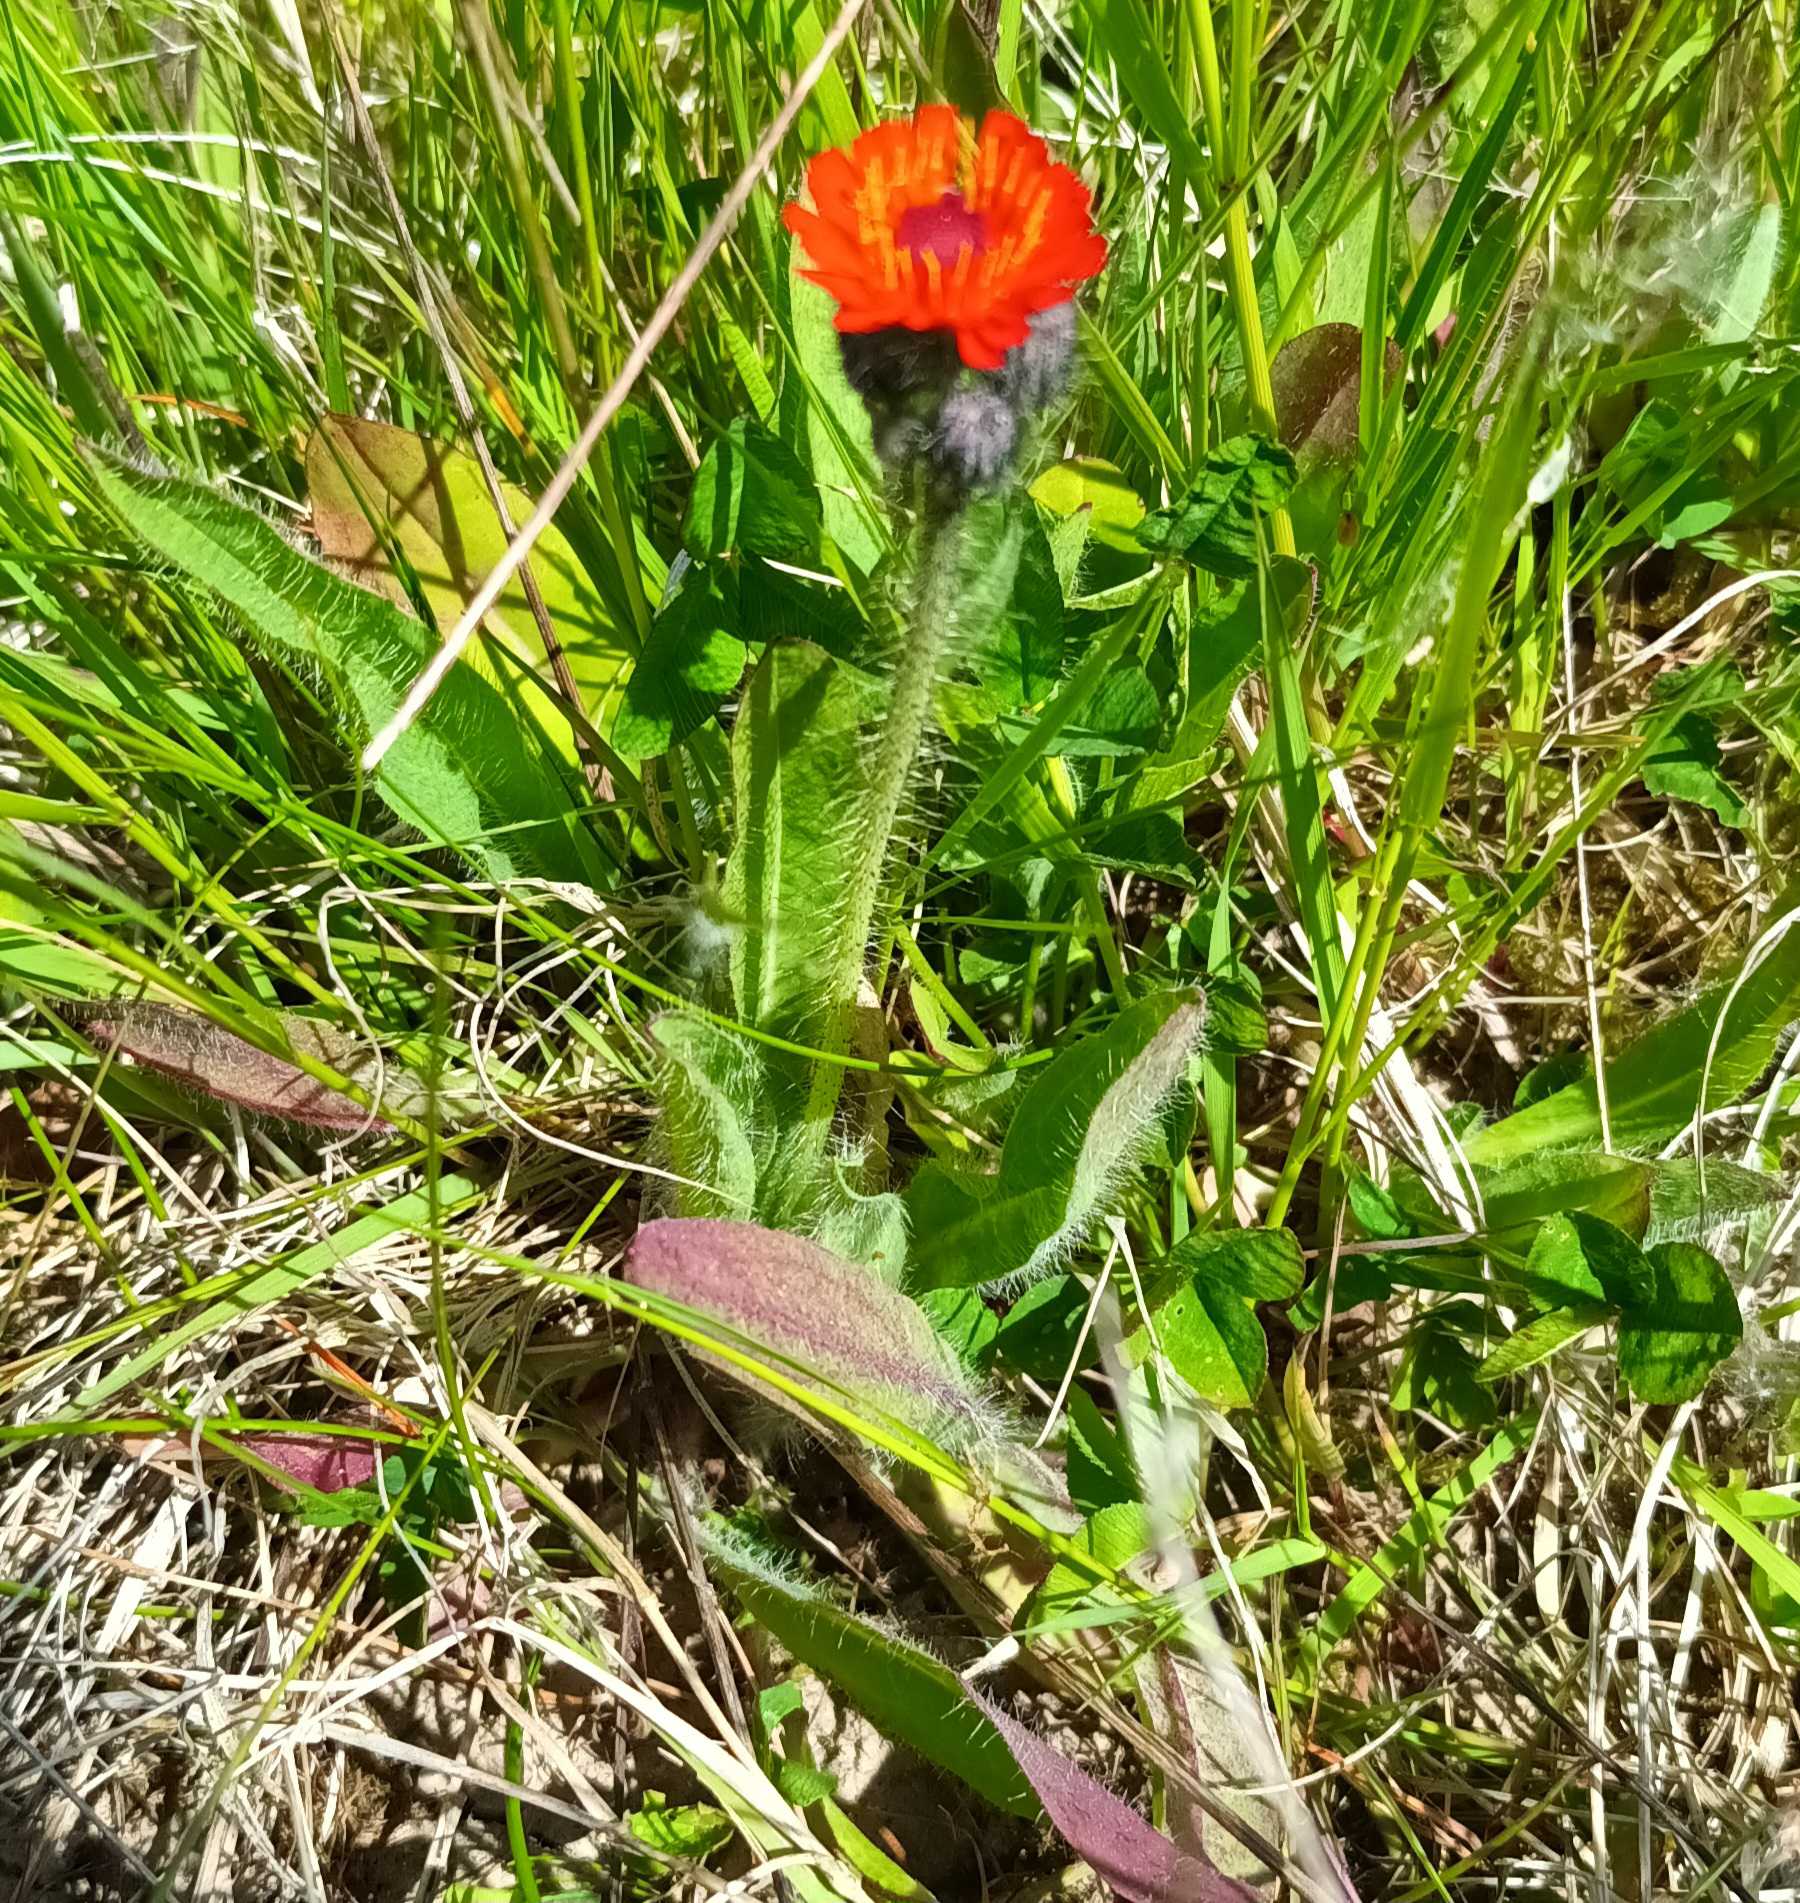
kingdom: Plantae
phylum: Tracheophyta
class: Magnoliopsida
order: Asterales
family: Asteraceae
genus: Pilosella
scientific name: Pilosella aurantiaca
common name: Pomerans-høgeurt
